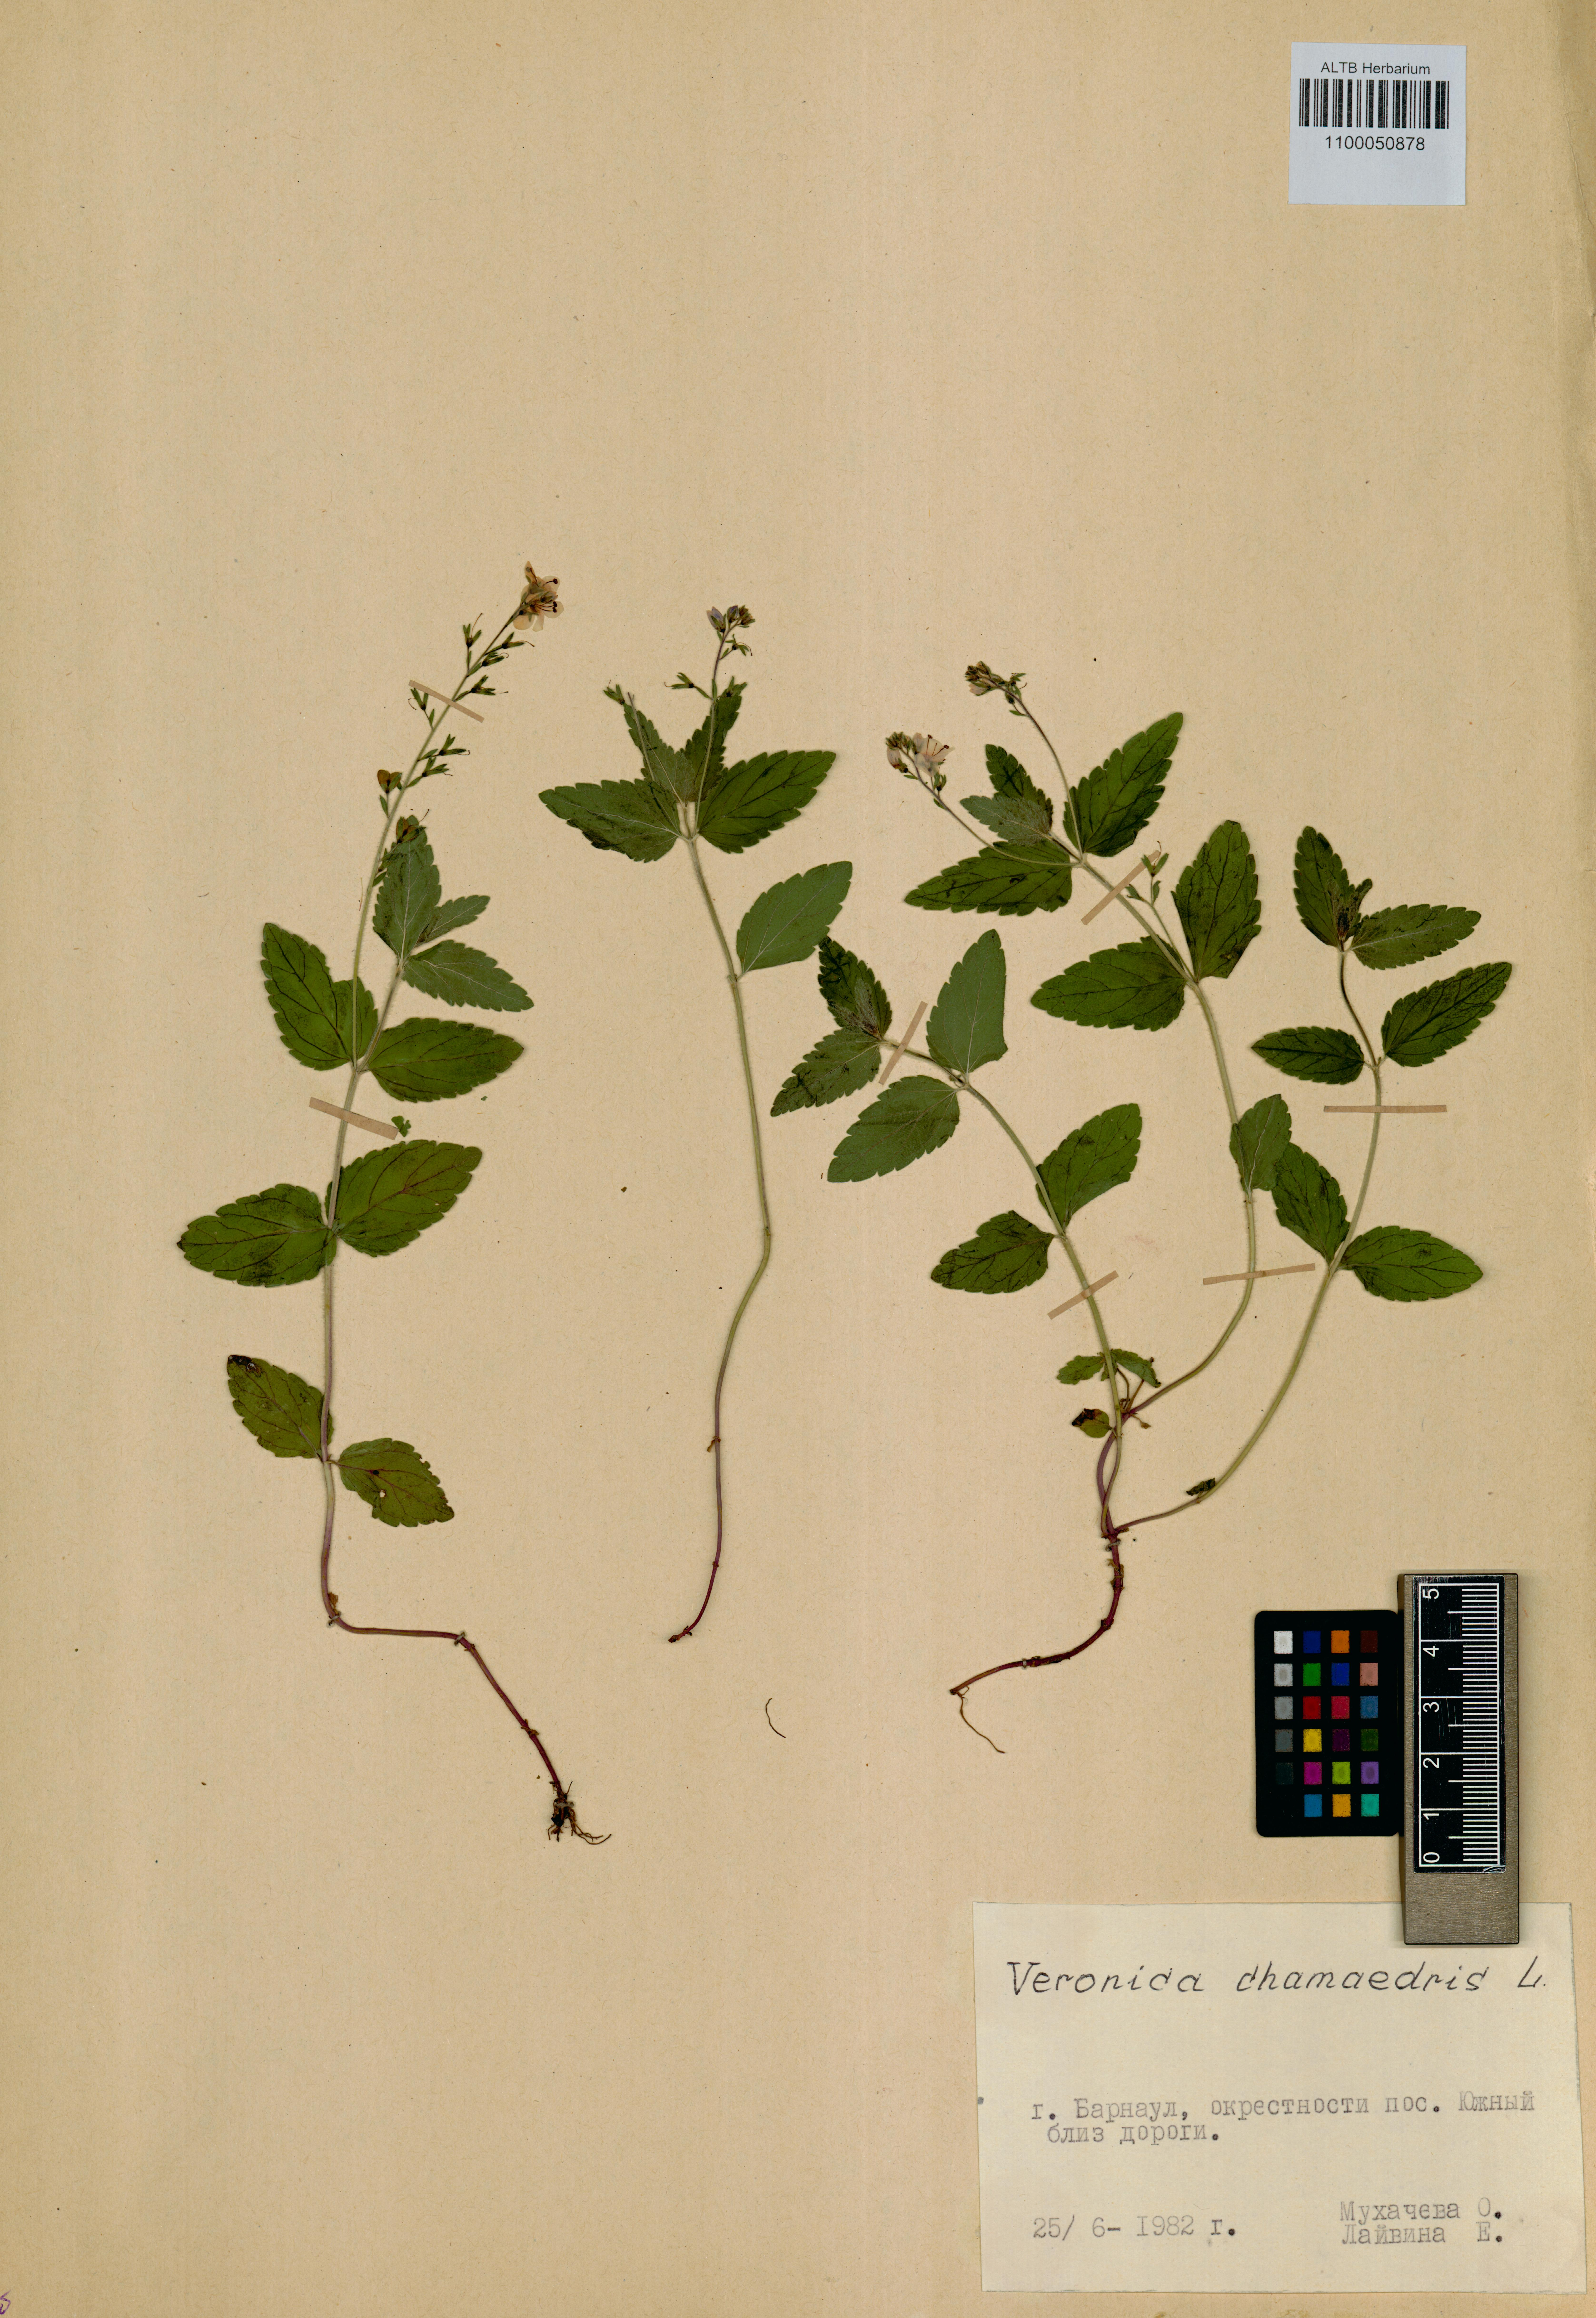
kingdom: Plantae
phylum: Tracheophyta
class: Magnoliopsida
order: Lamiales
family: Plantaginaceae
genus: Veronica
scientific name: Veronica chamaedrys
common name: Germander speedwell
